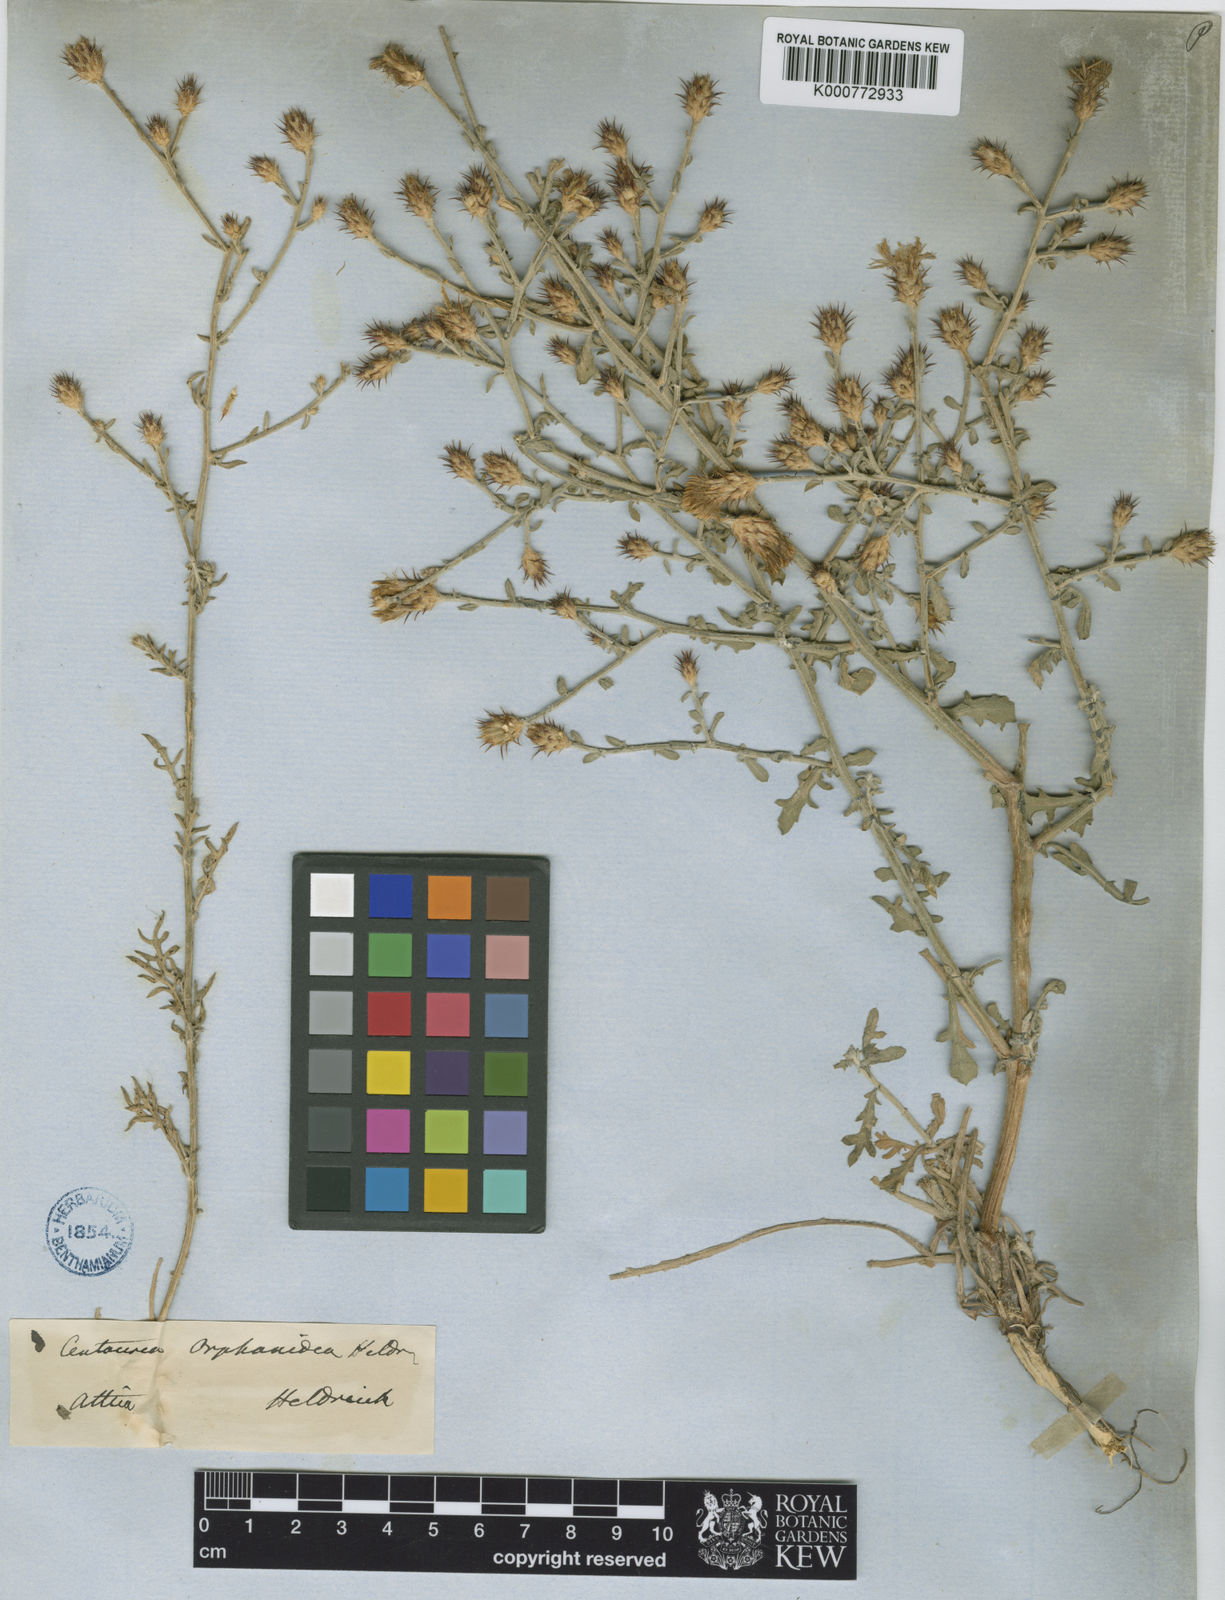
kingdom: Plantae
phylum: Tracheophyta
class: Magnoliopsida
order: Asterales
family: Asteraceae
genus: Centaurea
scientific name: Centaurea
